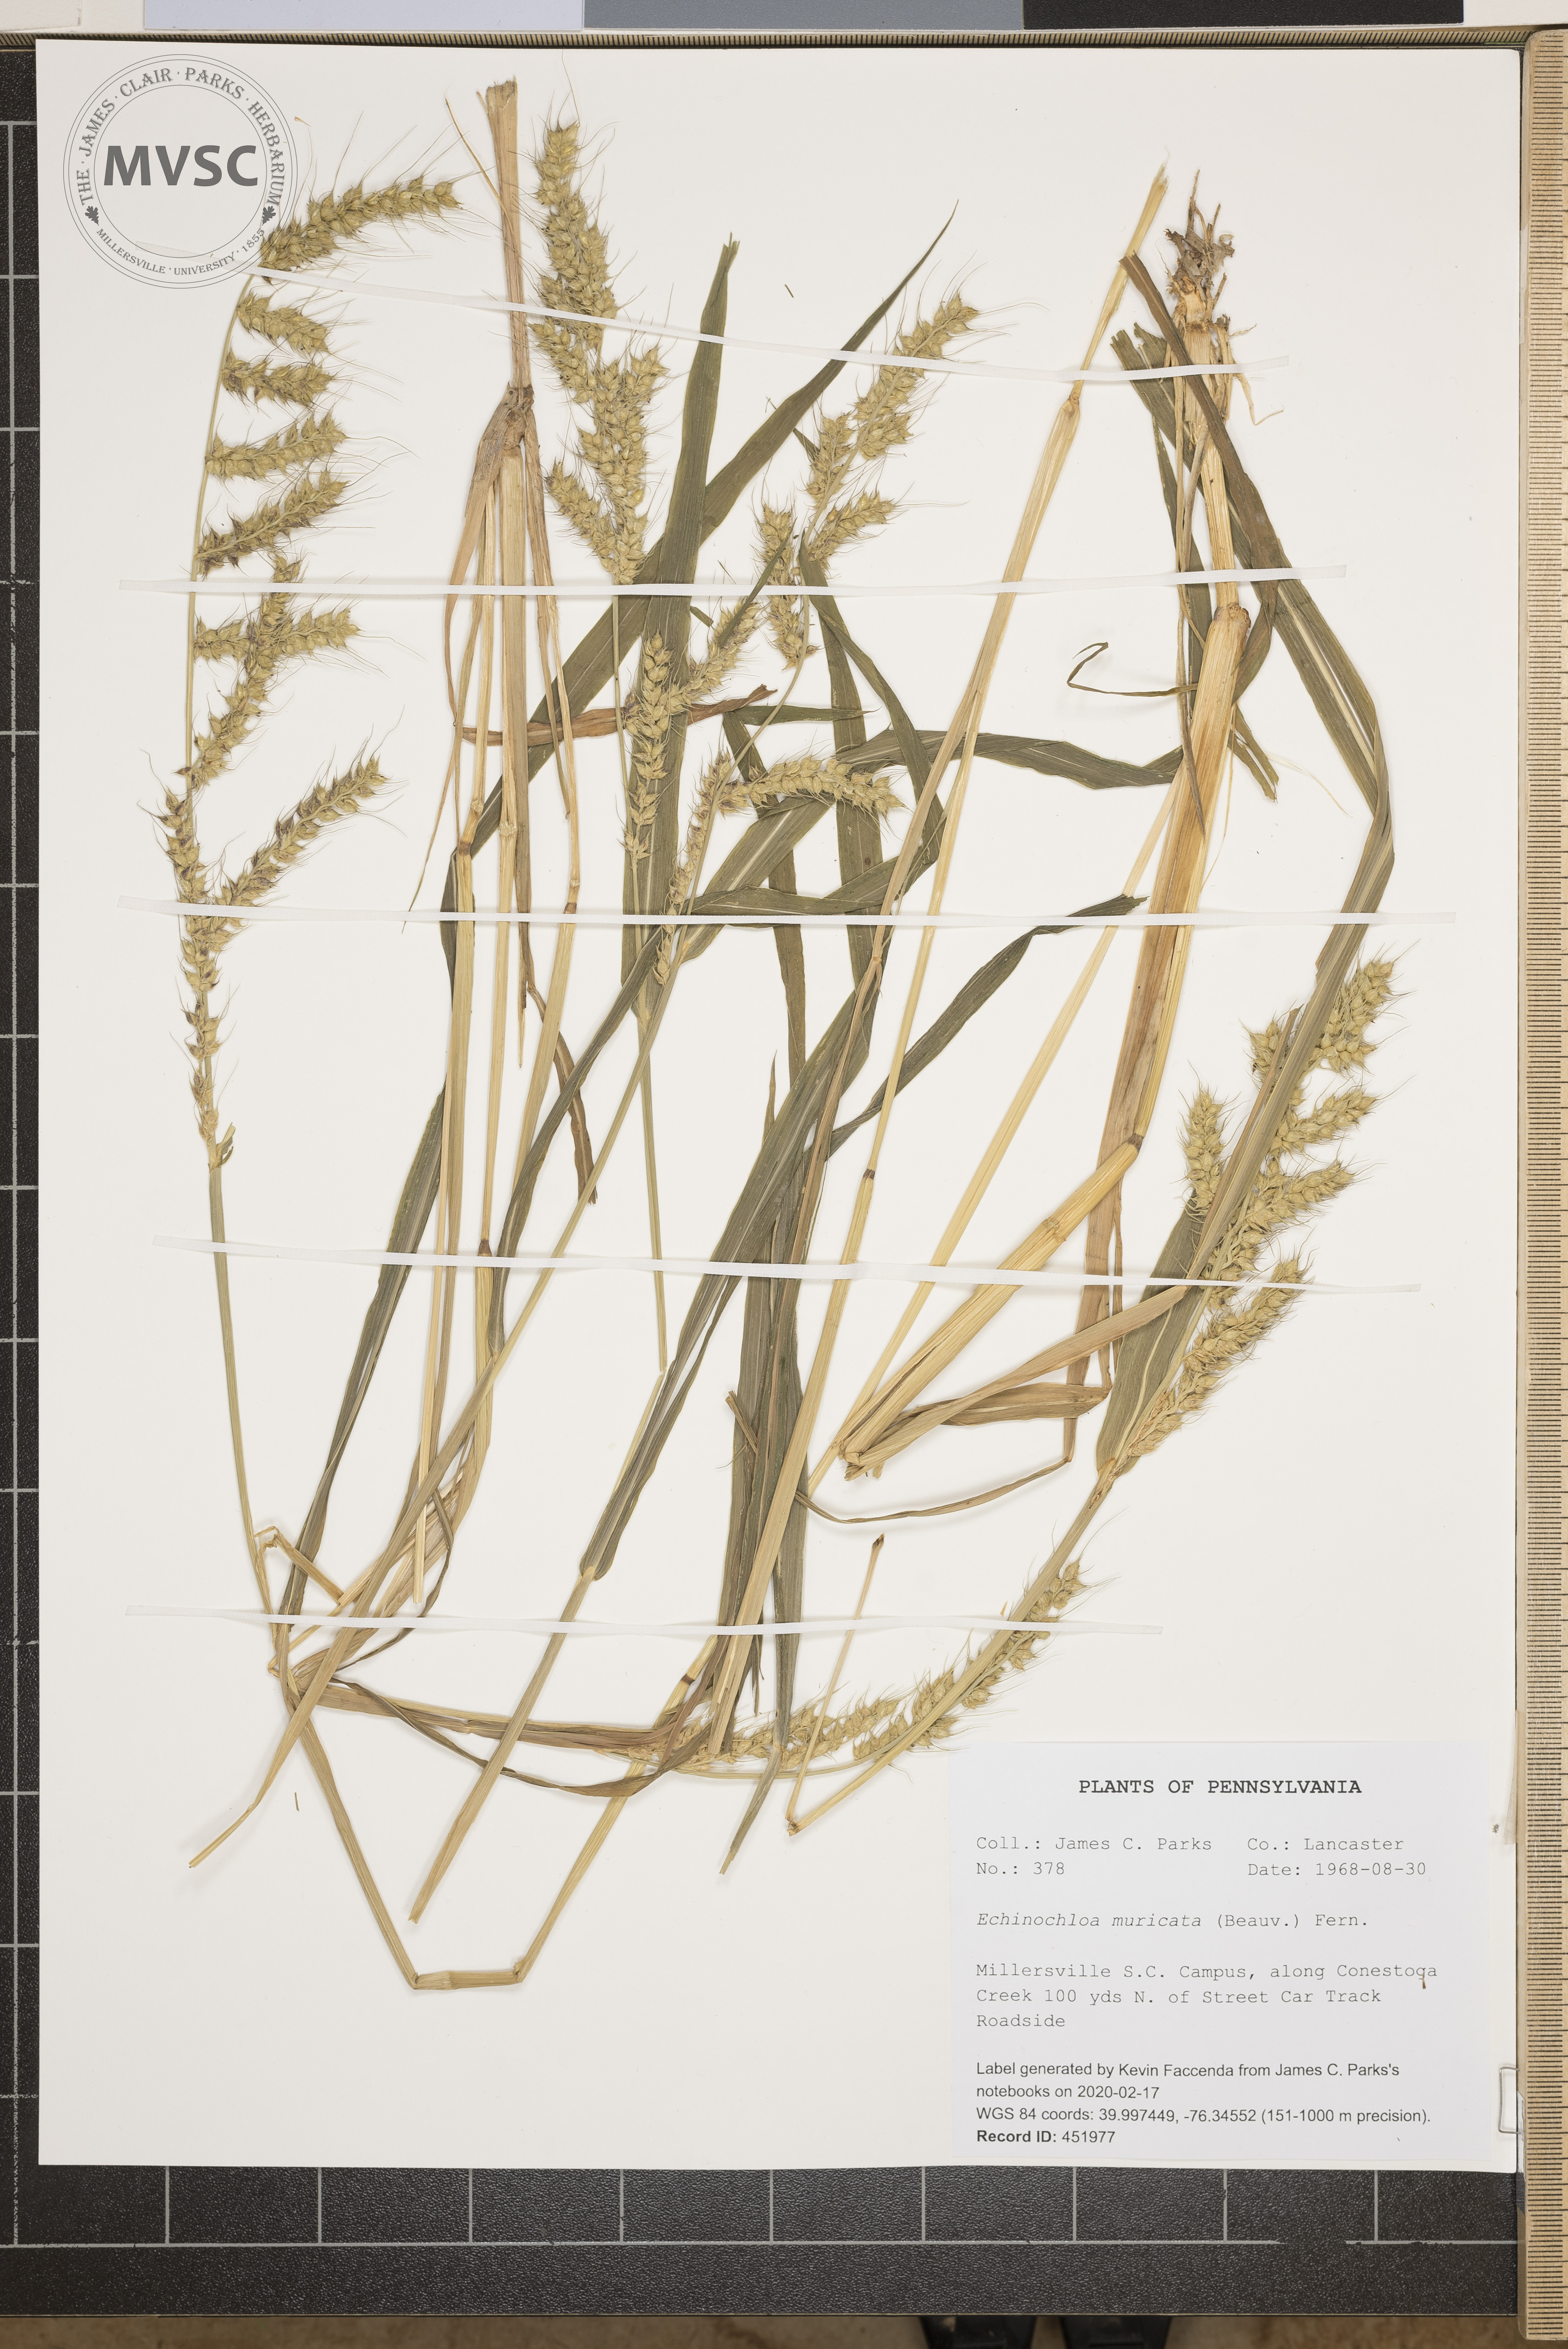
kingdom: Plantae
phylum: Tracheophyta
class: Liliopsida
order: Poales
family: Poaceae
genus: Echinochloa
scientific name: Echinochloa muricata
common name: American barnyard grass
